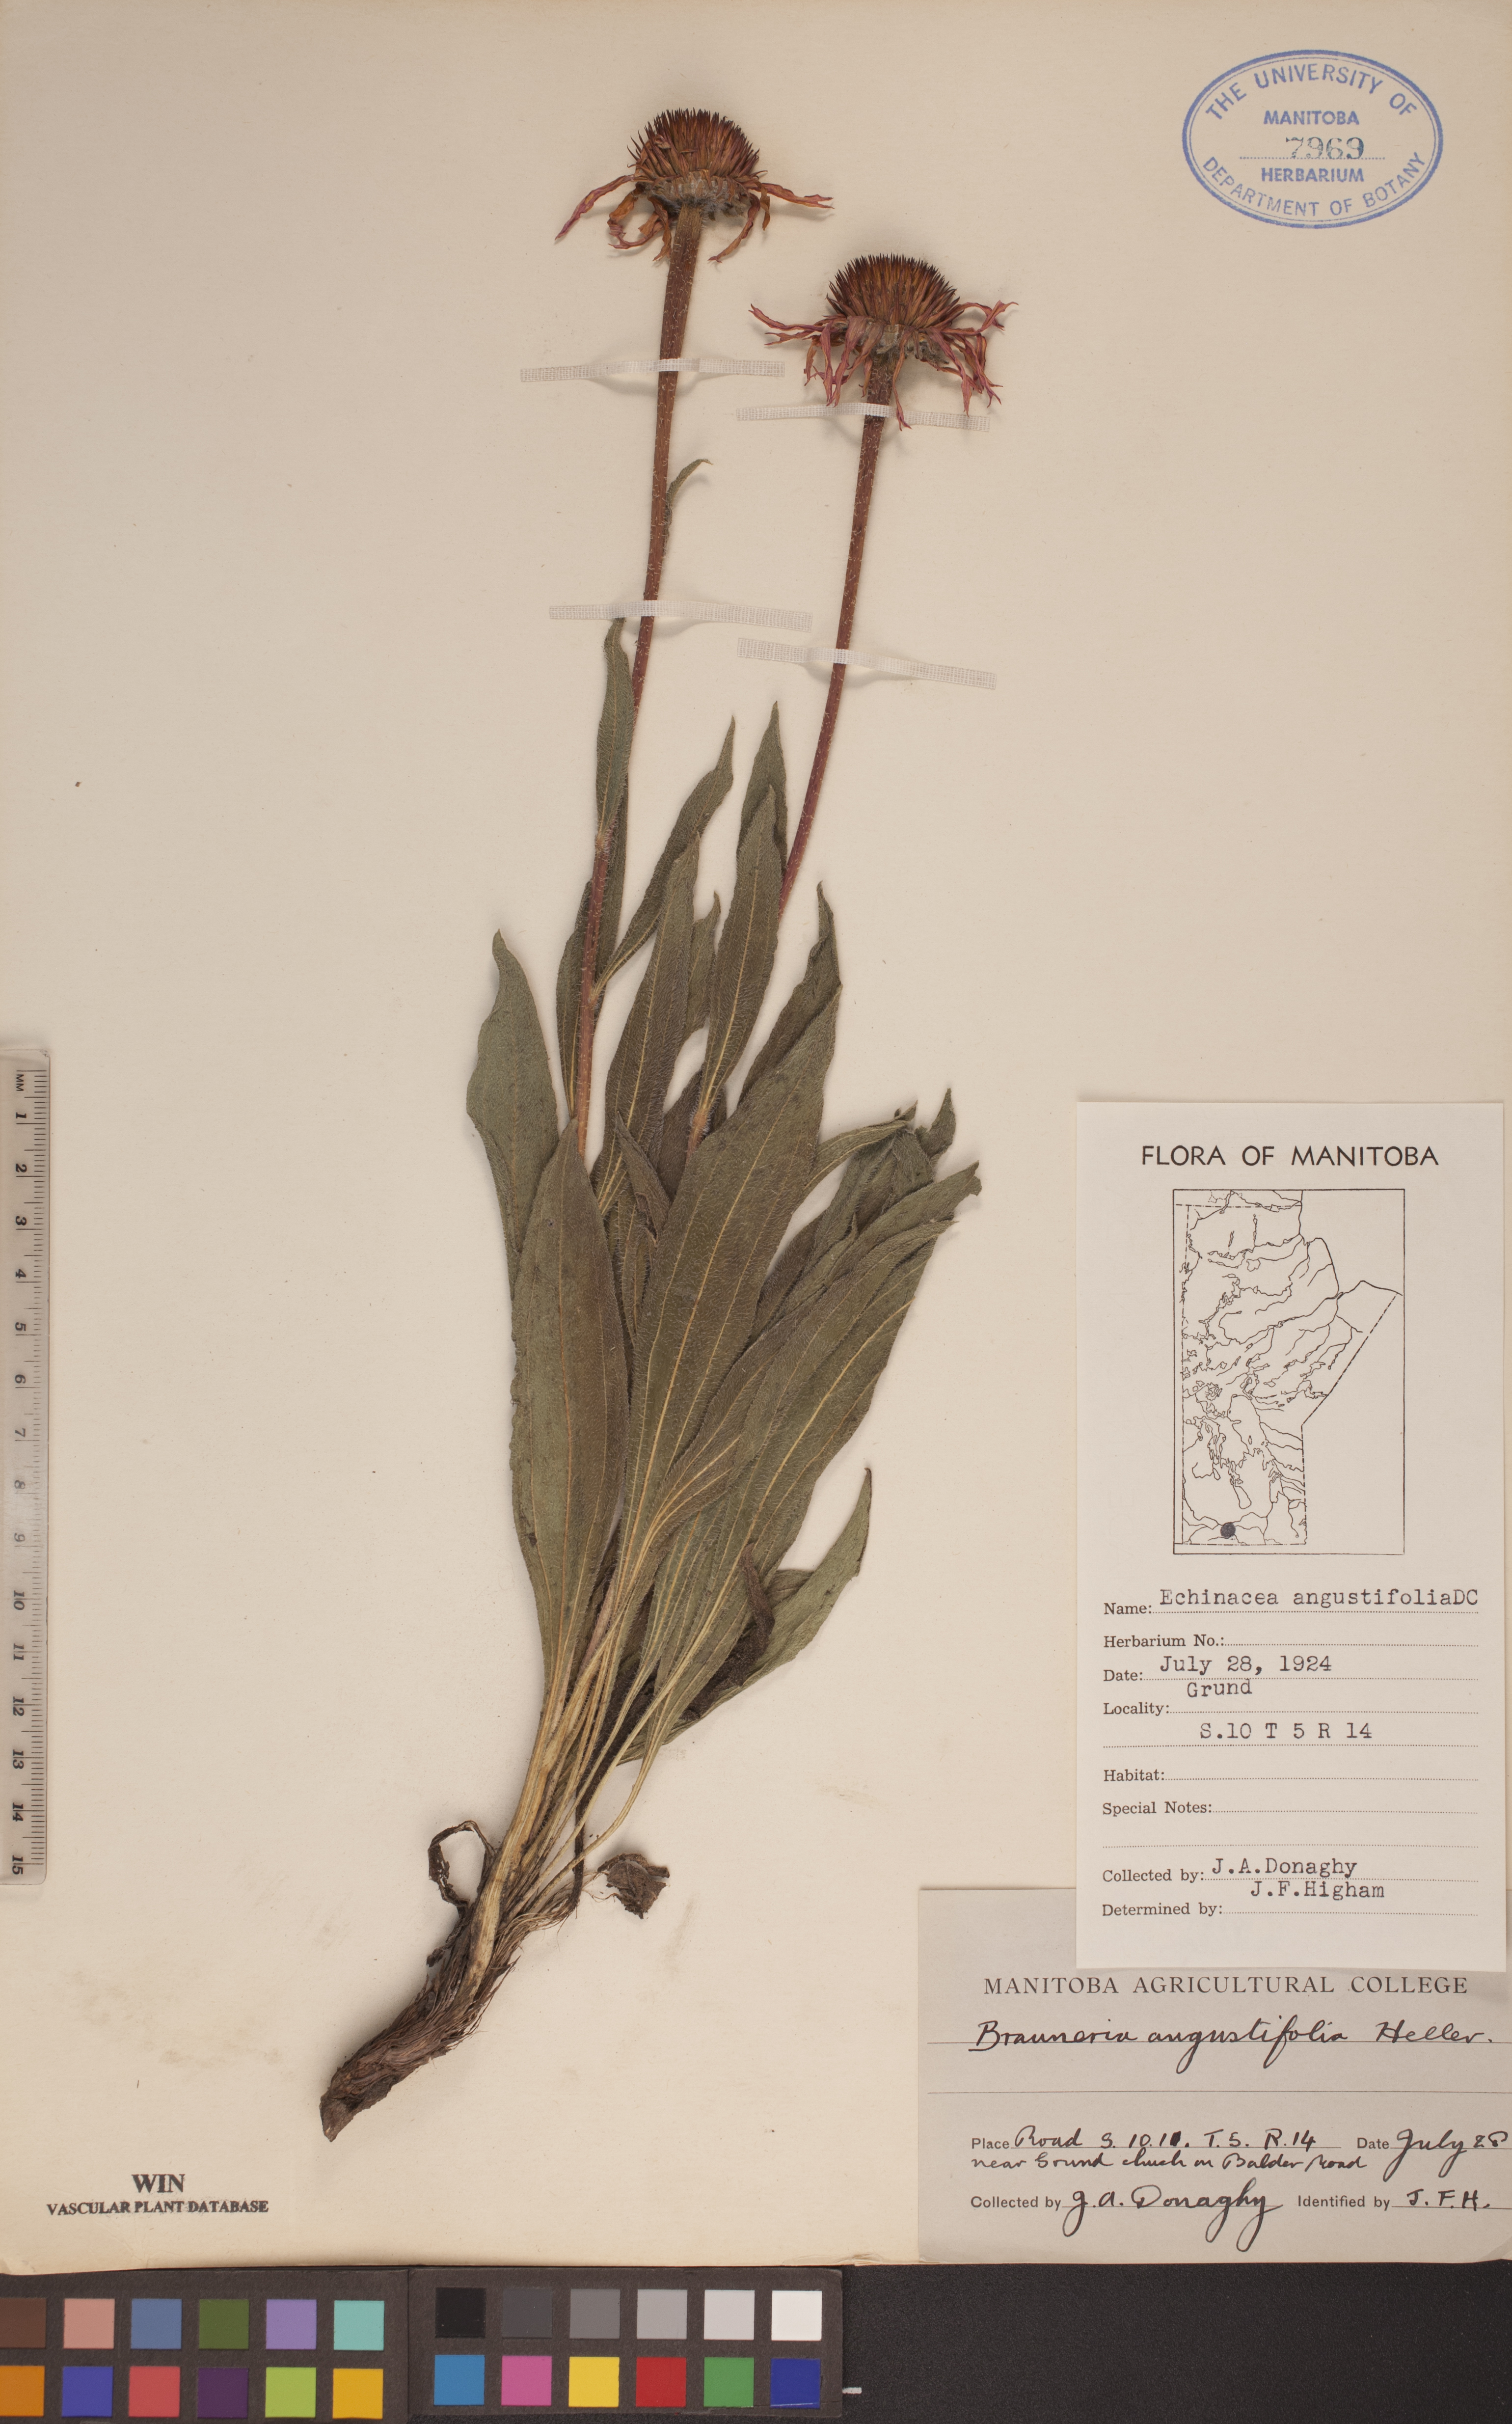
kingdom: Plantae
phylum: Tracheophyta
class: Magnoliopsida
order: Asterales
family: Asteraceae
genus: Echinacea
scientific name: Echinacea angustifolia
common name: Black-sampson echinacea
